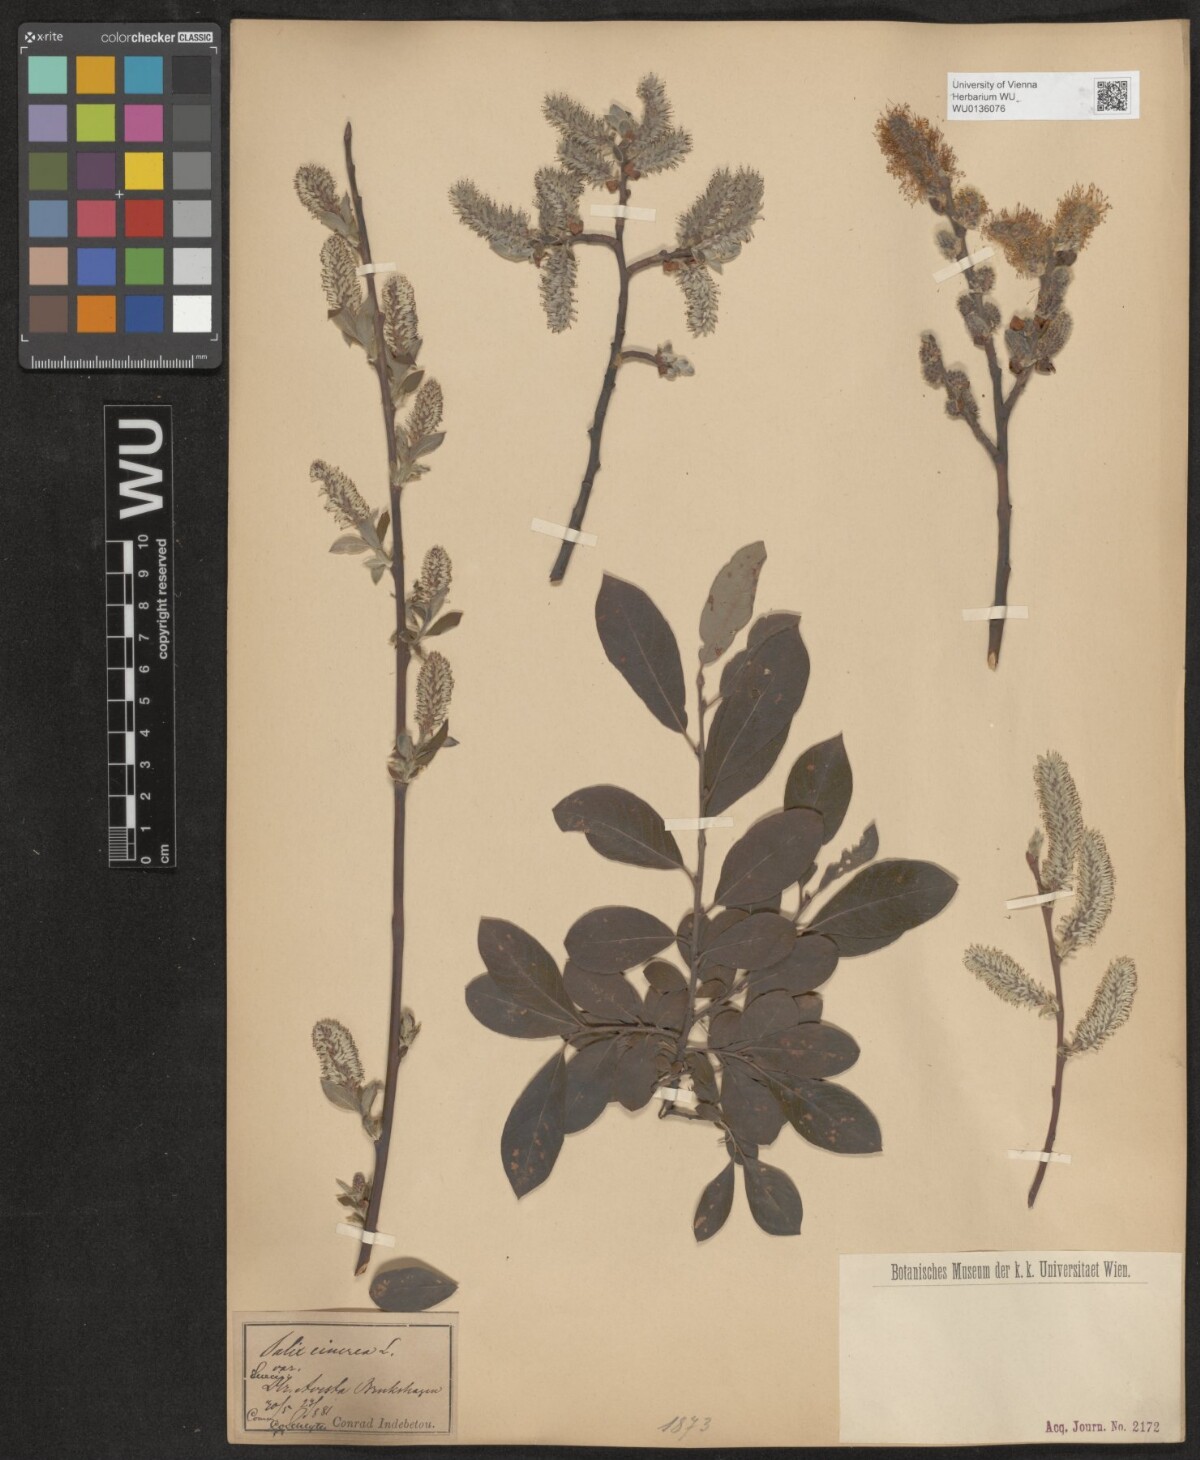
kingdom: Plantae
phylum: Tracheophyta
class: Magnoliopsida
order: Malpighiales
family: Salicaceae
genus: Salix
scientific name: Salix cinerea
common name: Common sallow
